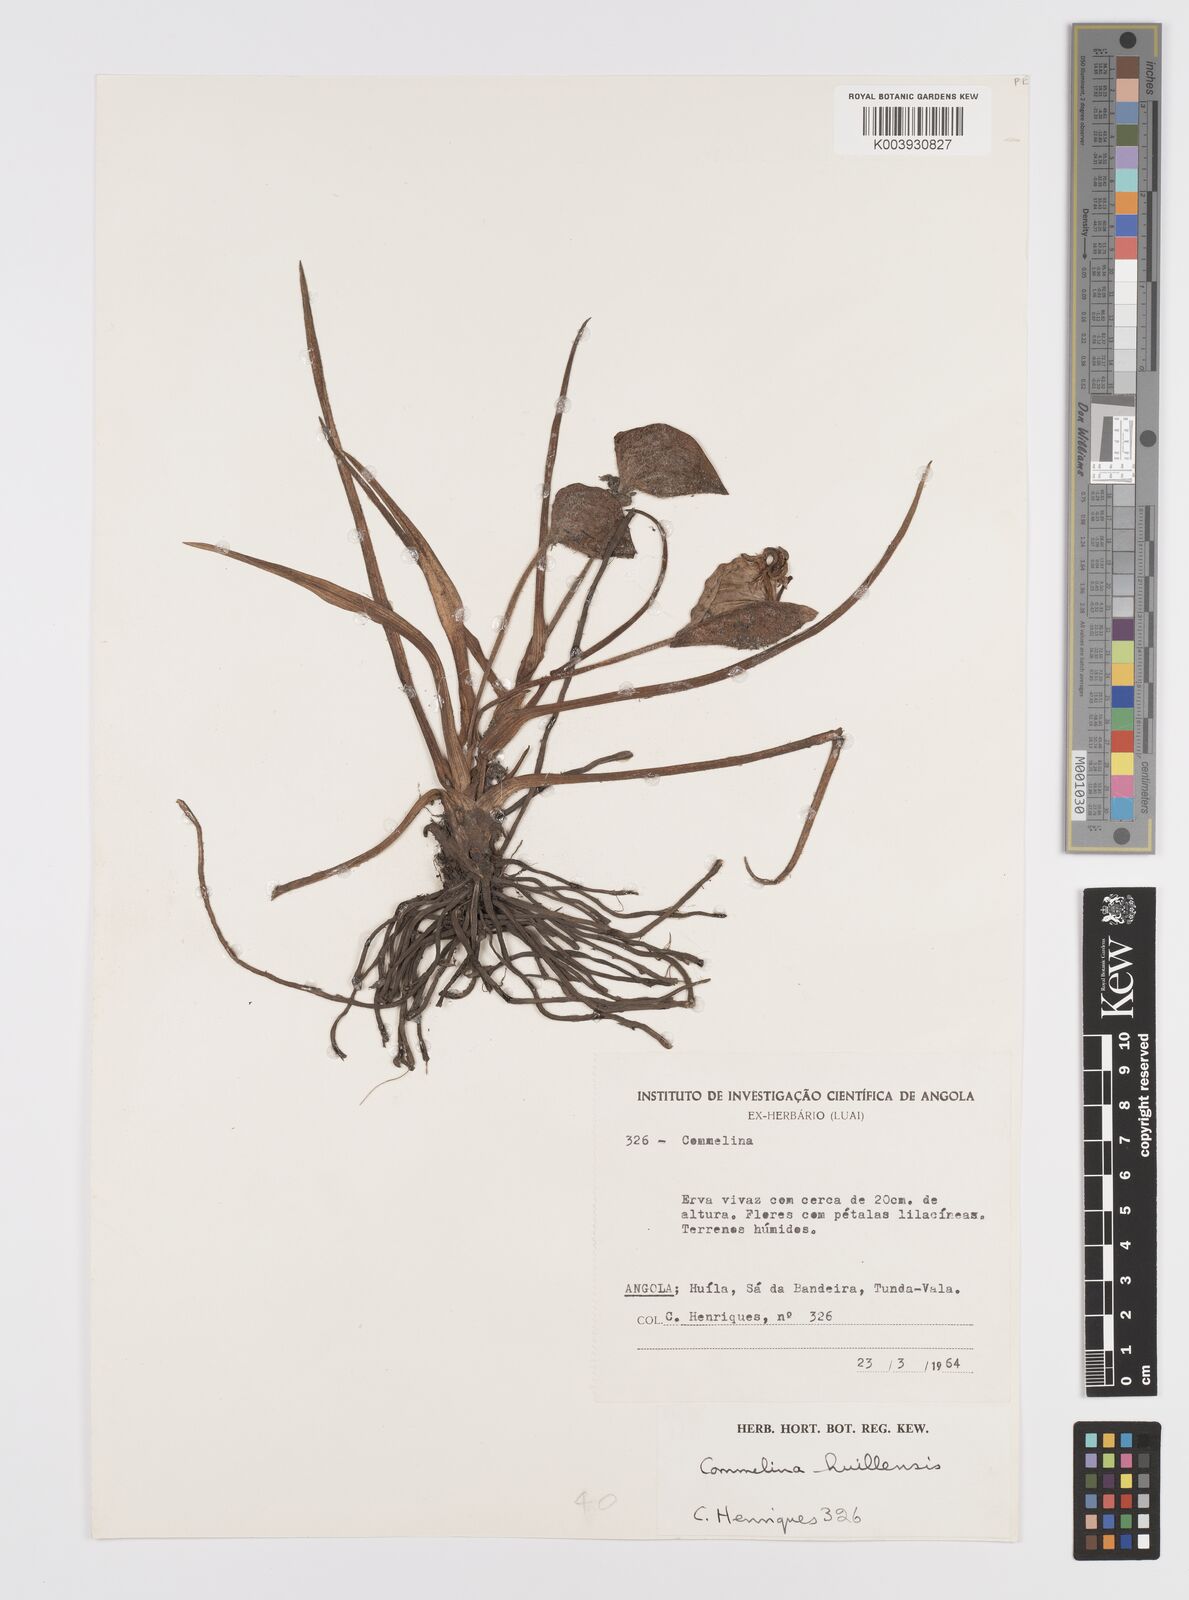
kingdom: Plantae
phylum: Tracheophyta
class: Liliopsida
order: Commelinales
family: Commelinaceae
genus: Commelina
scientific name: Commelina huillensis
